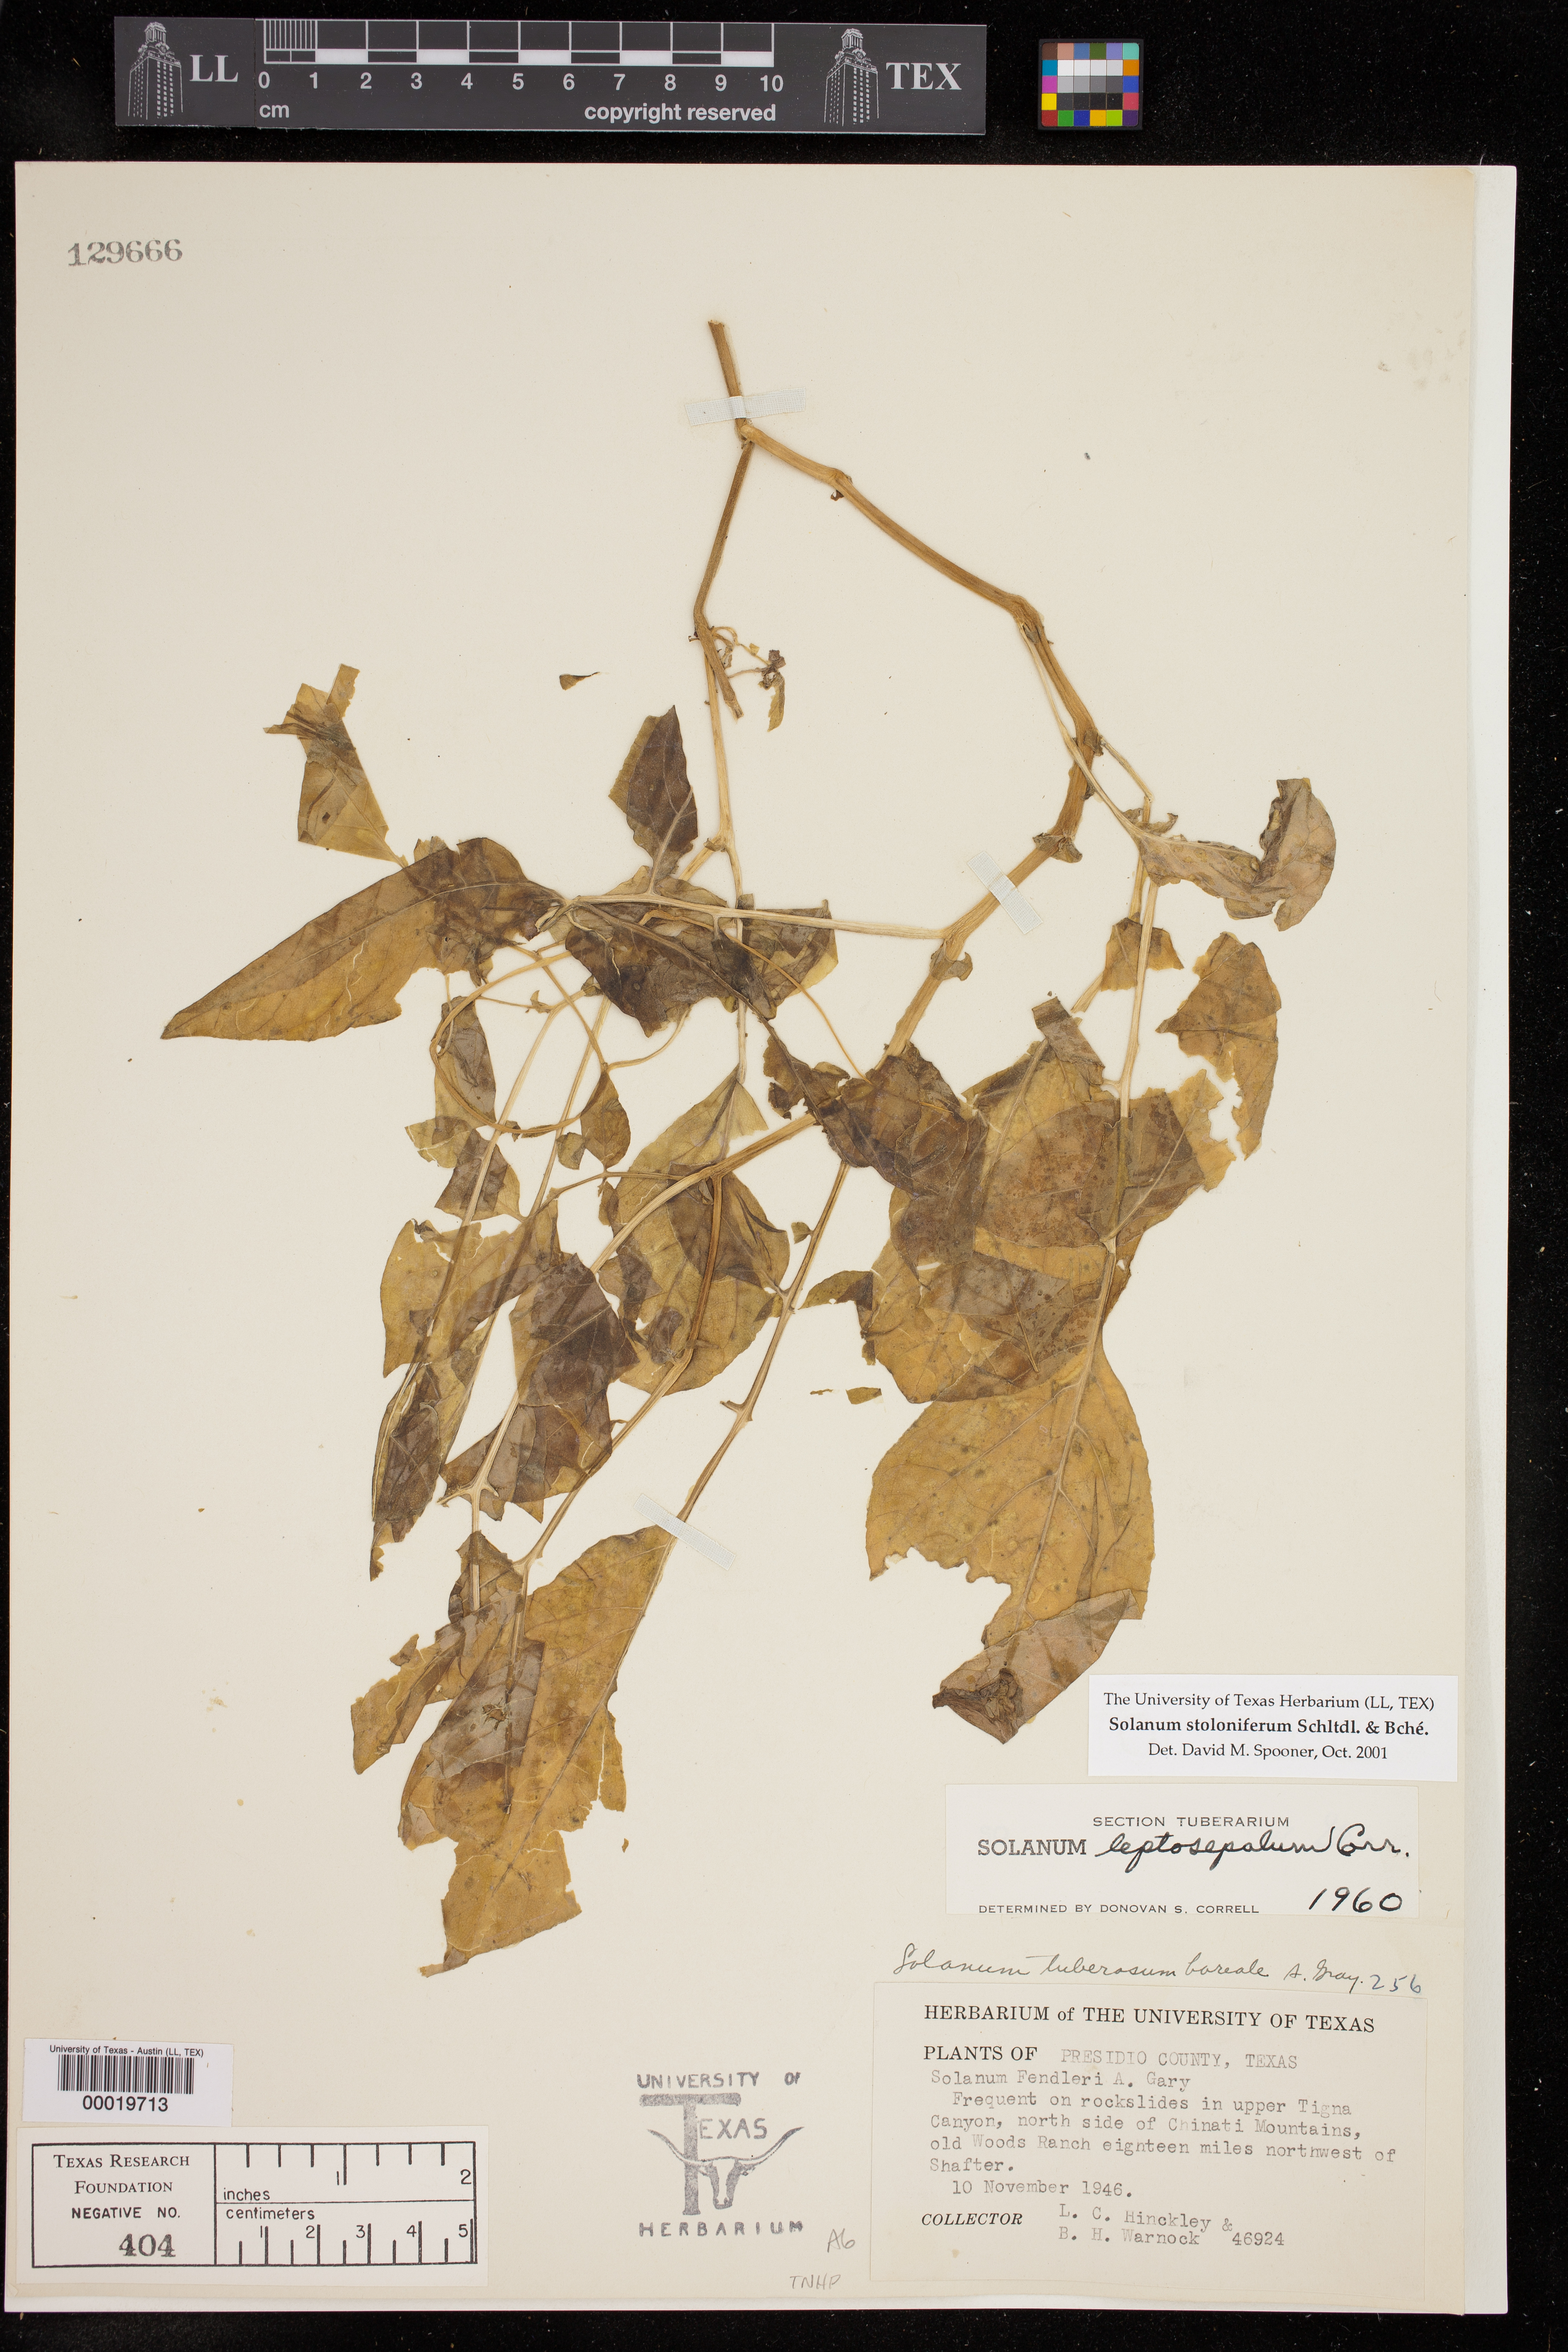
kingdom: Plantae
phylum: Tracheophyta
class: Magnoliopsida
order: Solanales
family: Solanaceae
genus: Solanum
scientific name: Solanum stoloniferum
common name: Fendler's nighshade
